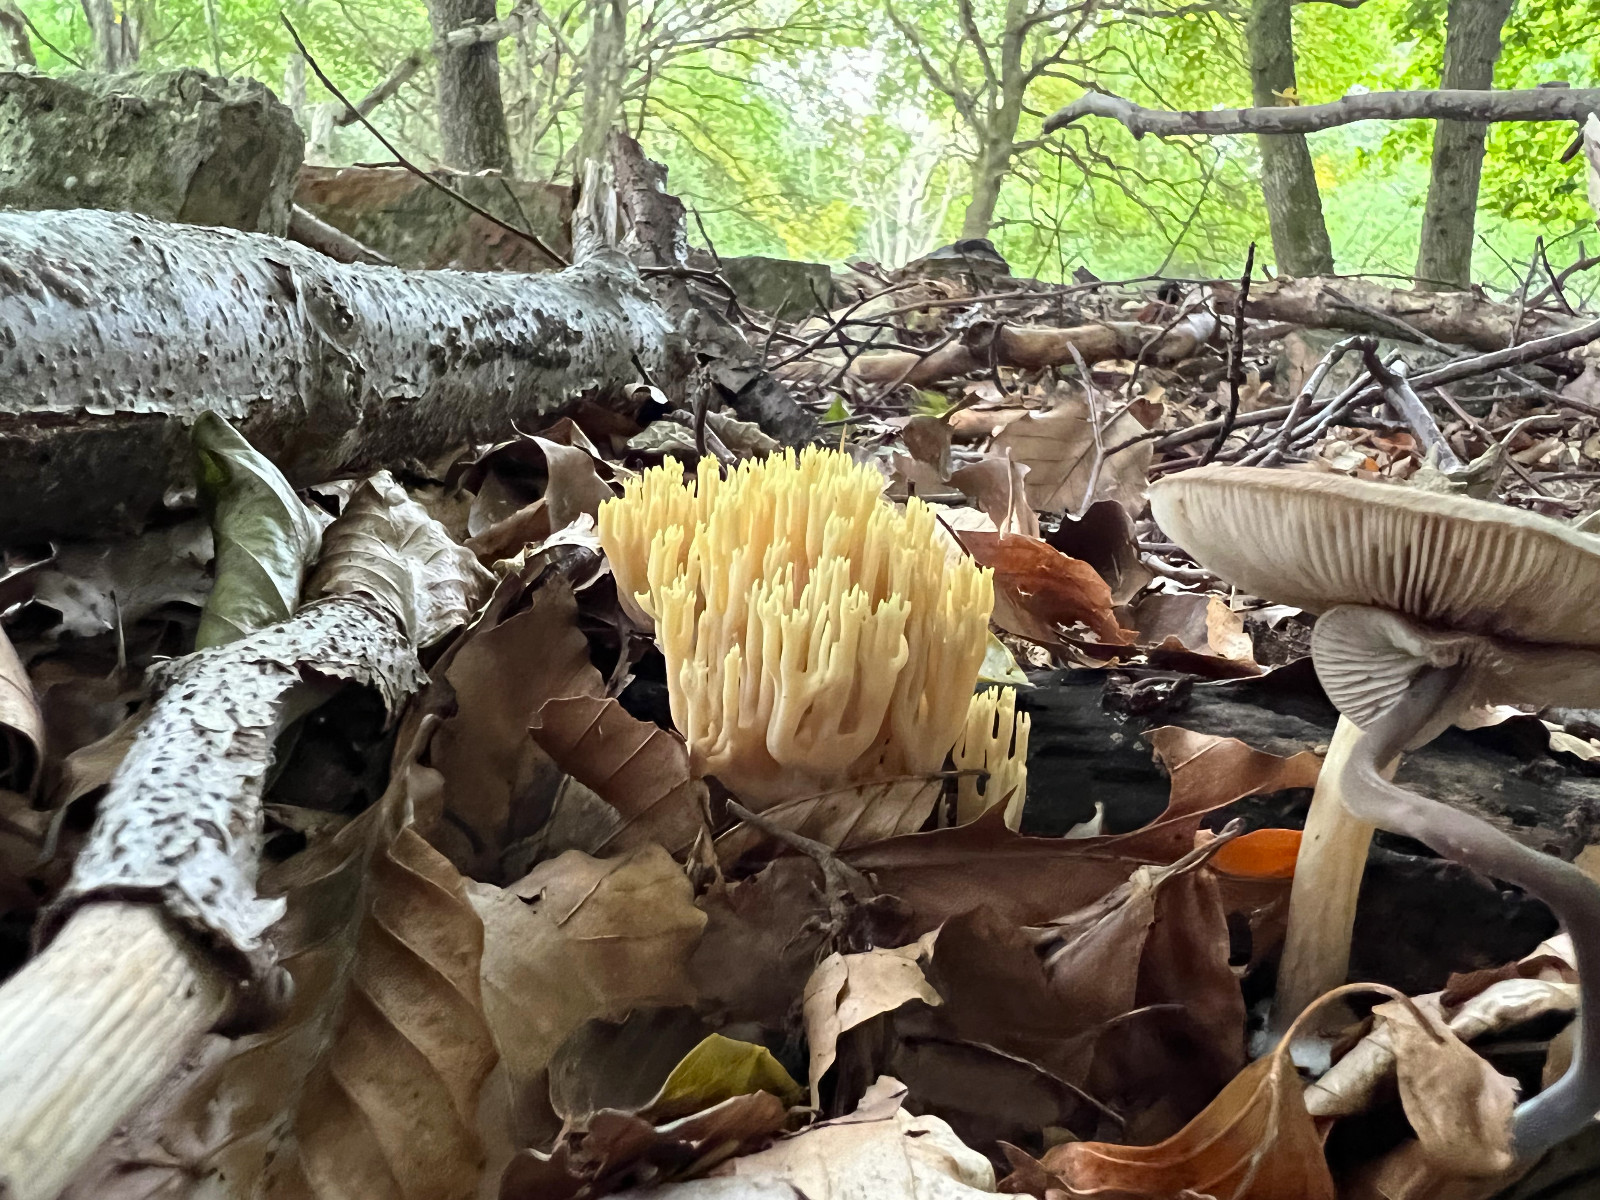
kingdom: Fungi
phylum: Basidiomycota
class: Agaricomycetes
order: Gomphales
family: Gomphaceae
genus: Ramaria
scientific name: Ramaria stricta
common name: rank koralsvamp
